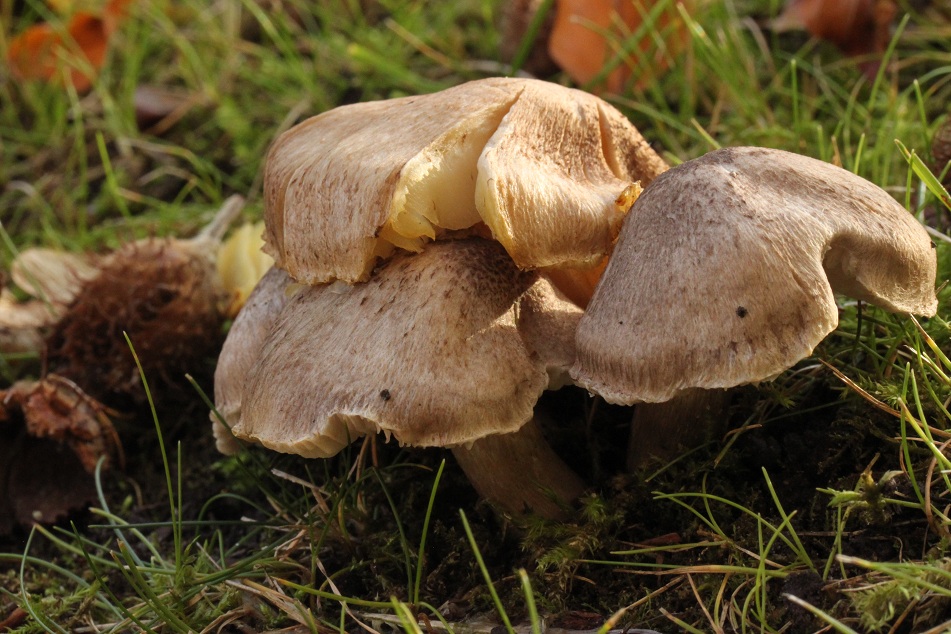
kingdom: Fungi
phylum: Basidiomycota
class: Agaricomycetes
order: Agaricales
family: Tricholomataceae
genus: Tricholoma
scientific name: Tricholoma scalpturatum
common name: gulplettet ridderhat
